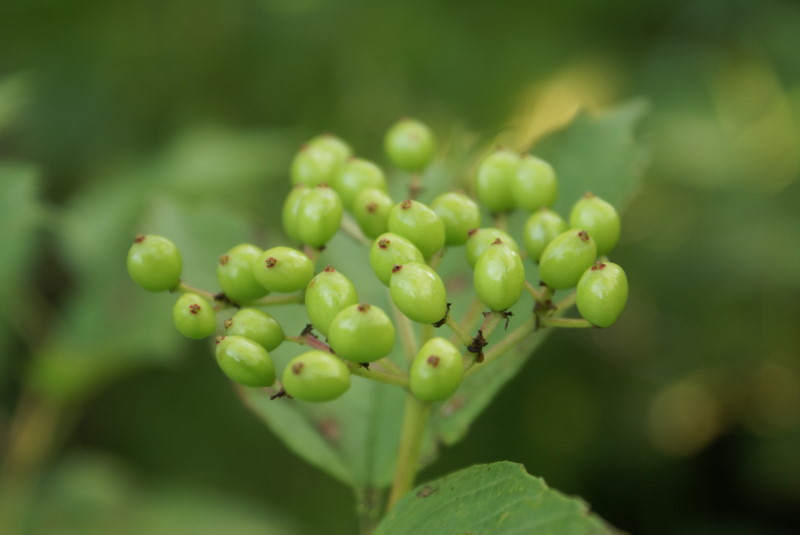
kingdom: Plantae
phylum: Tracheophyta
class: Magnoliopsida
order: Cornales
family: Cornaceae
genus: Cornus
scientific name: Cornus alba
